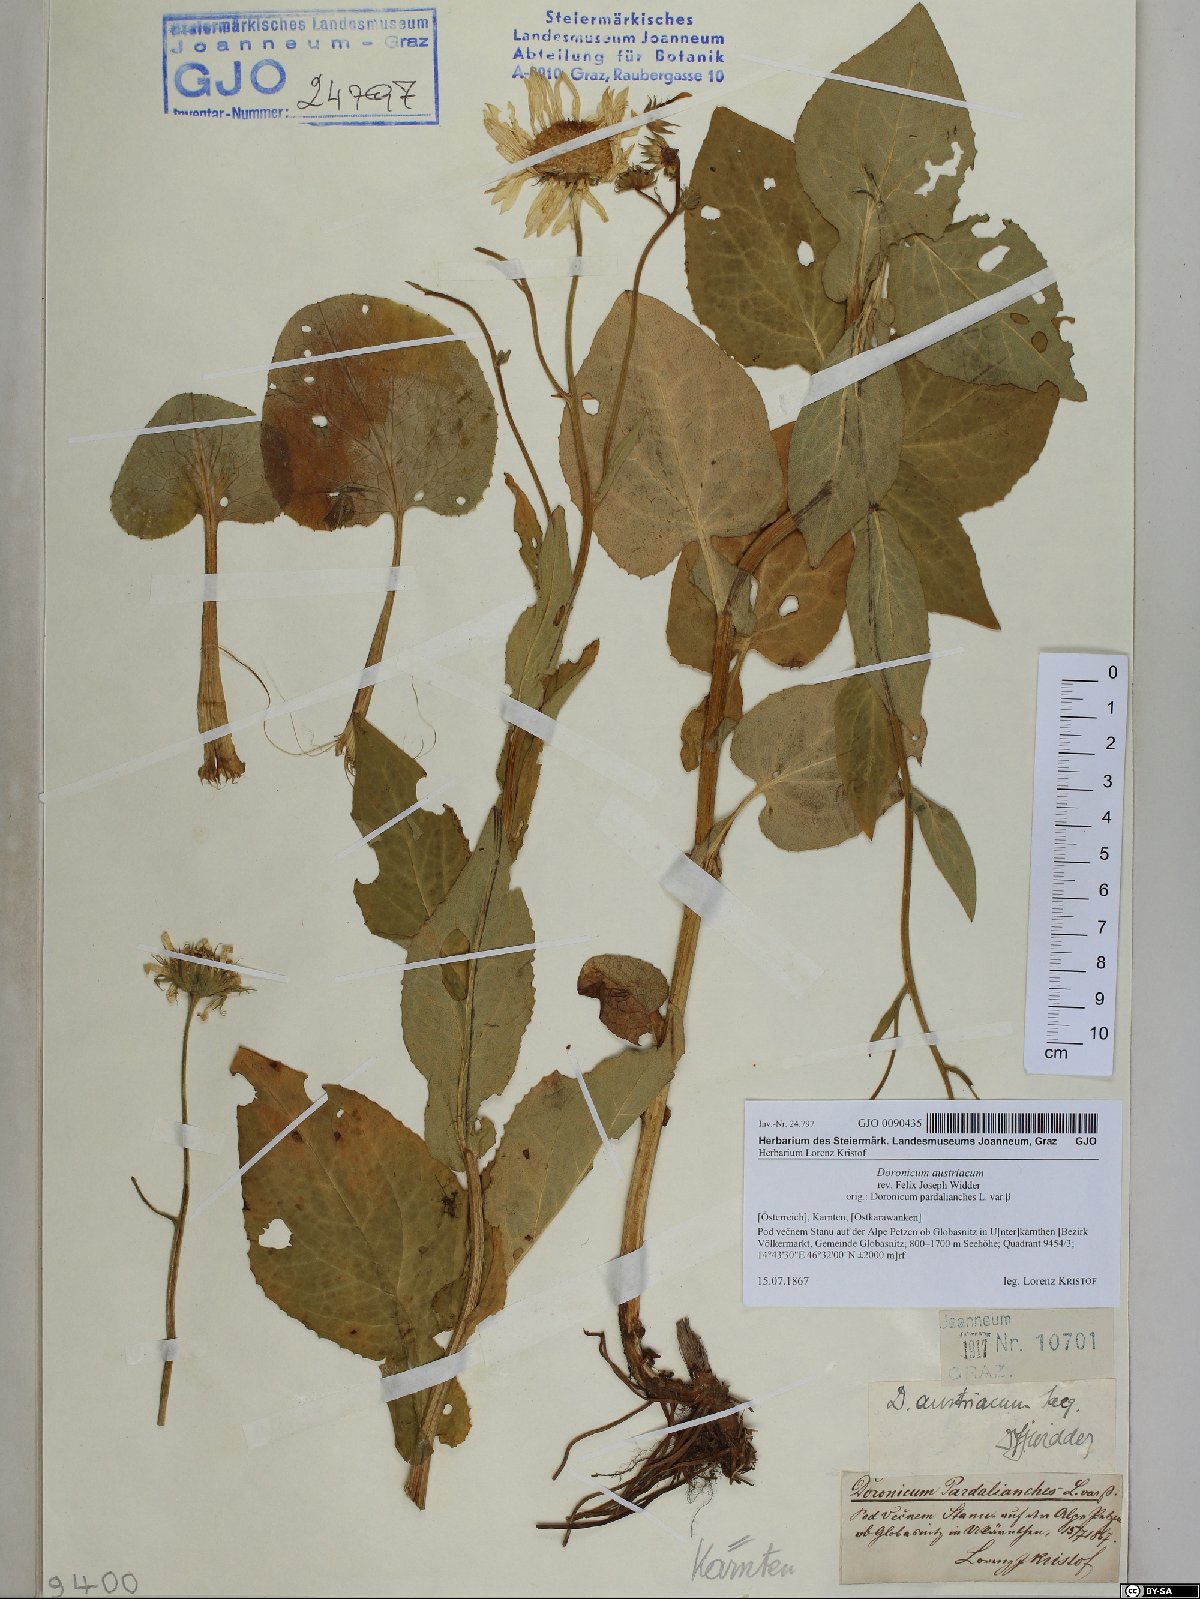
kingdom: Plantae
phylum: Tracheophyta
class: Magnoliopsida
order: Asterales
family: Asteraceae
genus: Doronicum
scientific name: Doronicum austriacum
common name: Austrian leopard's-bane
